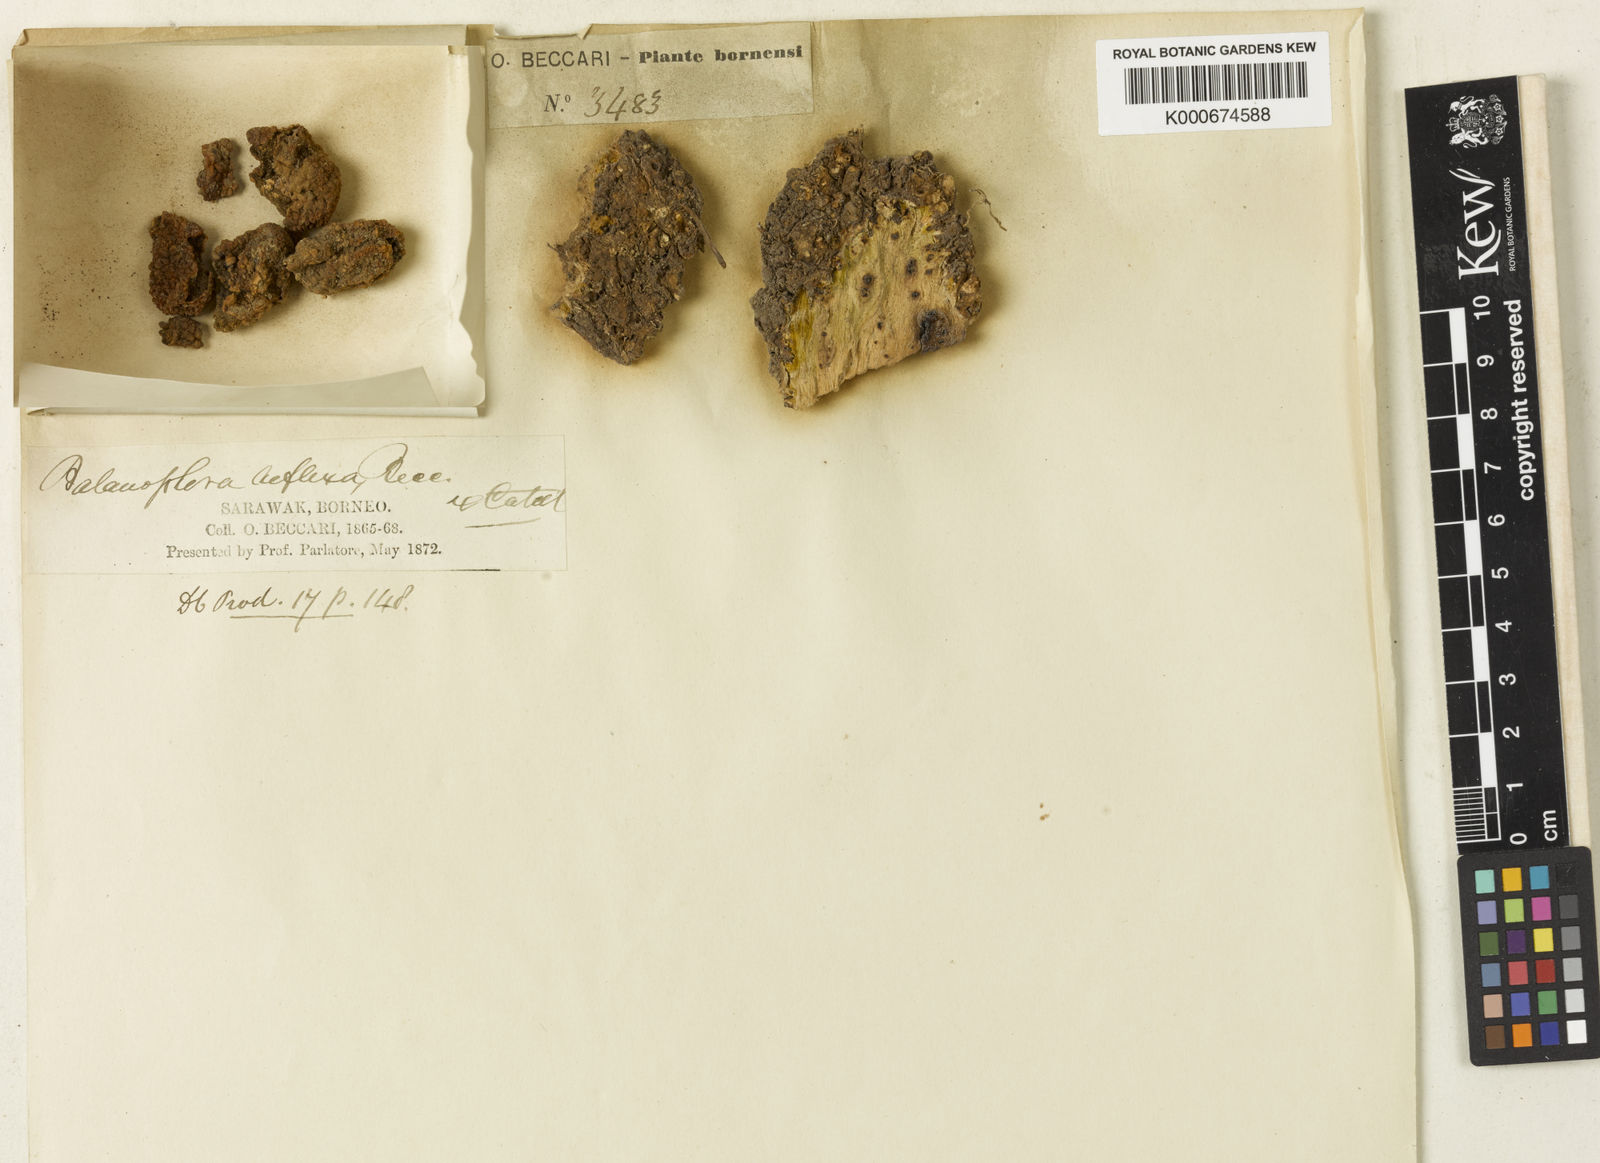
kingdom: Plantae
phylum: Tracheophyta
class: Magnoliopsida
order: Santalales
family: Balanophoraceae
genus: Balanophora
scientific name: Balanophora reflexa
